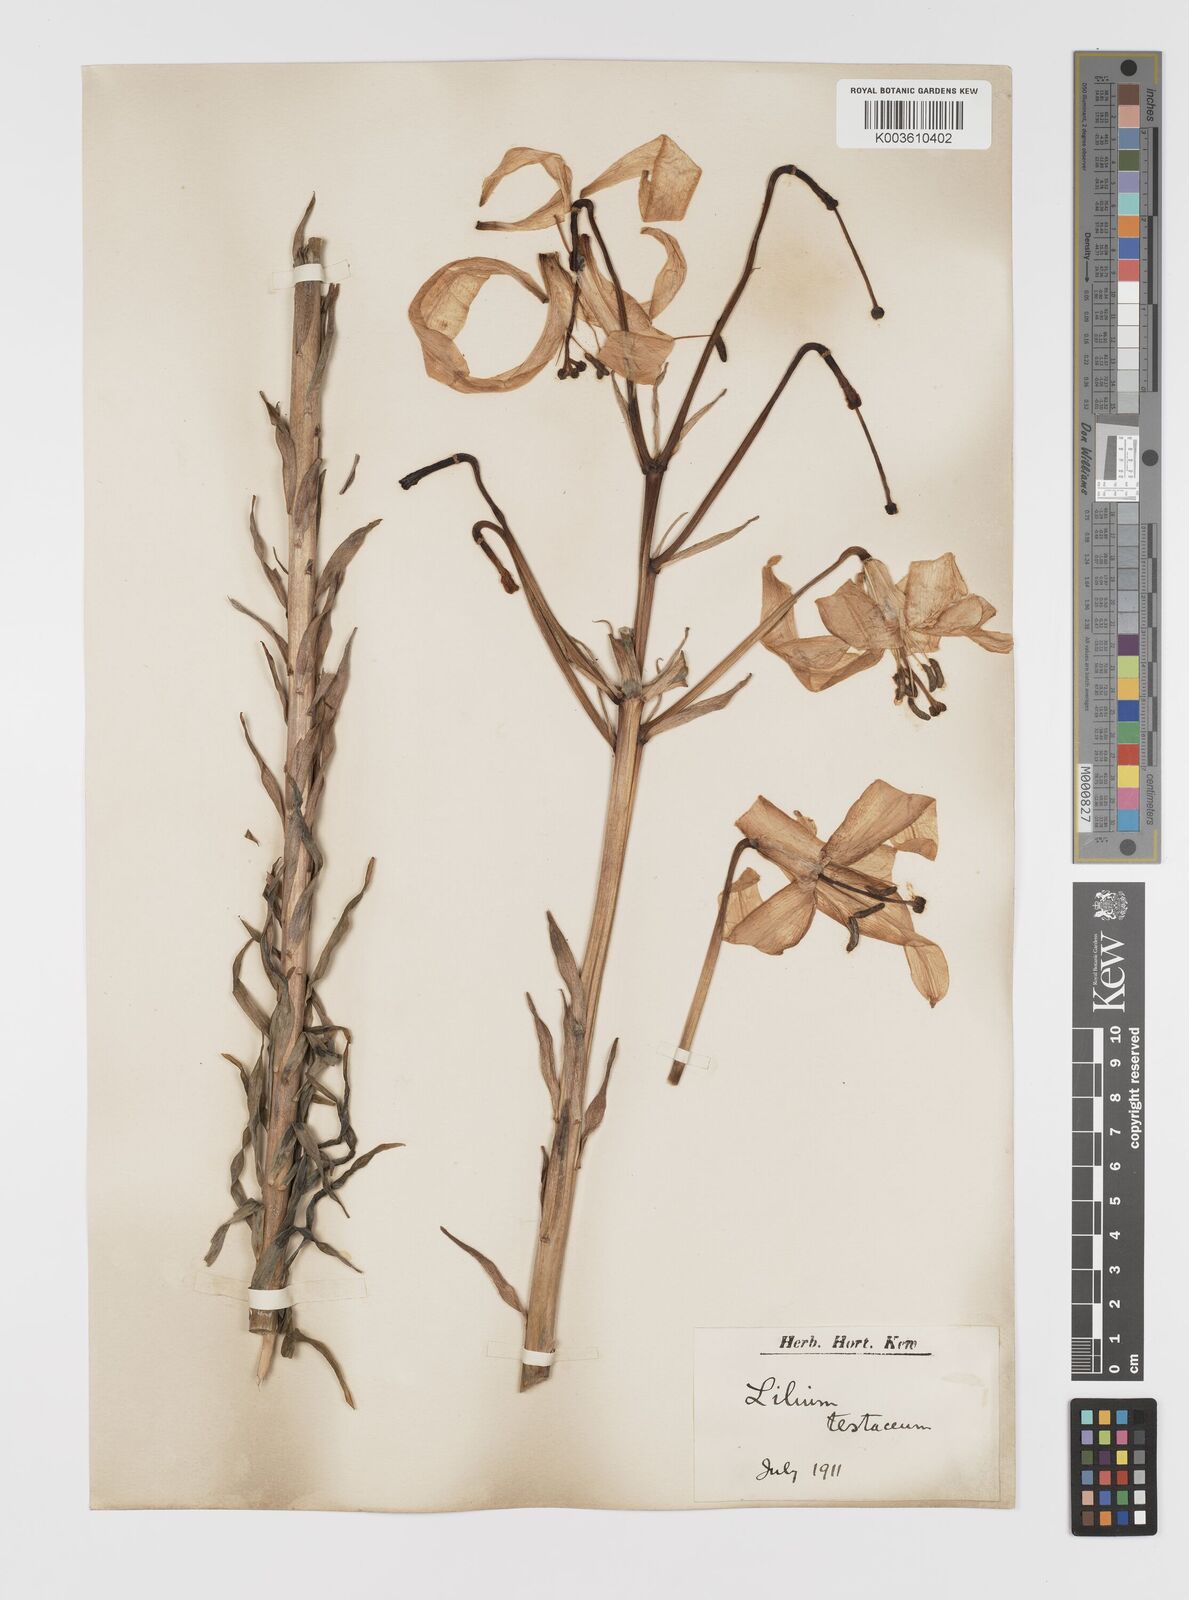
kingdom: Plantae
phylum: Tracheophyta
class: Liliopsida
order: Liliales
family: Liliaceae
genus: Lilium
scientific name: Lilium testaceum
